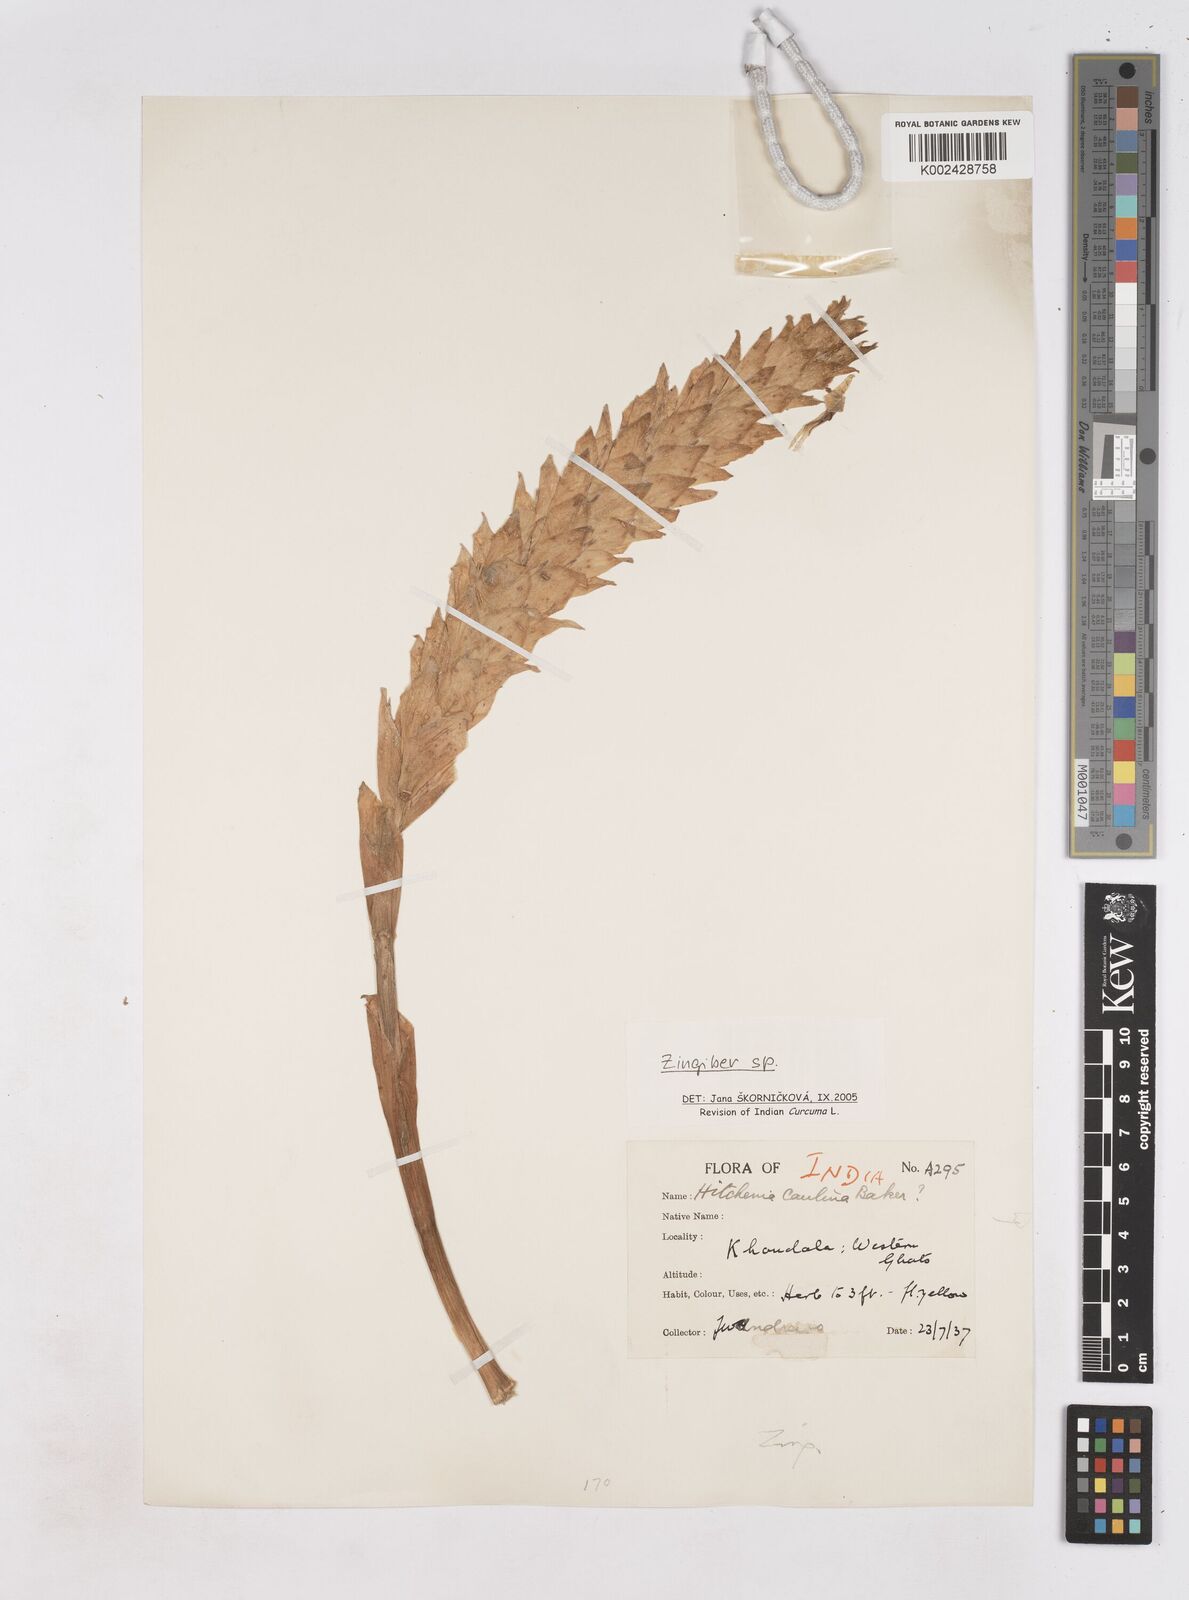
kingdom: Plantae
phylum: Tracheophyta
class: Liliopsida
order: Zingiberales
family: Zingiberaceae
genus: Zingiber
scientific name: Zingiber
